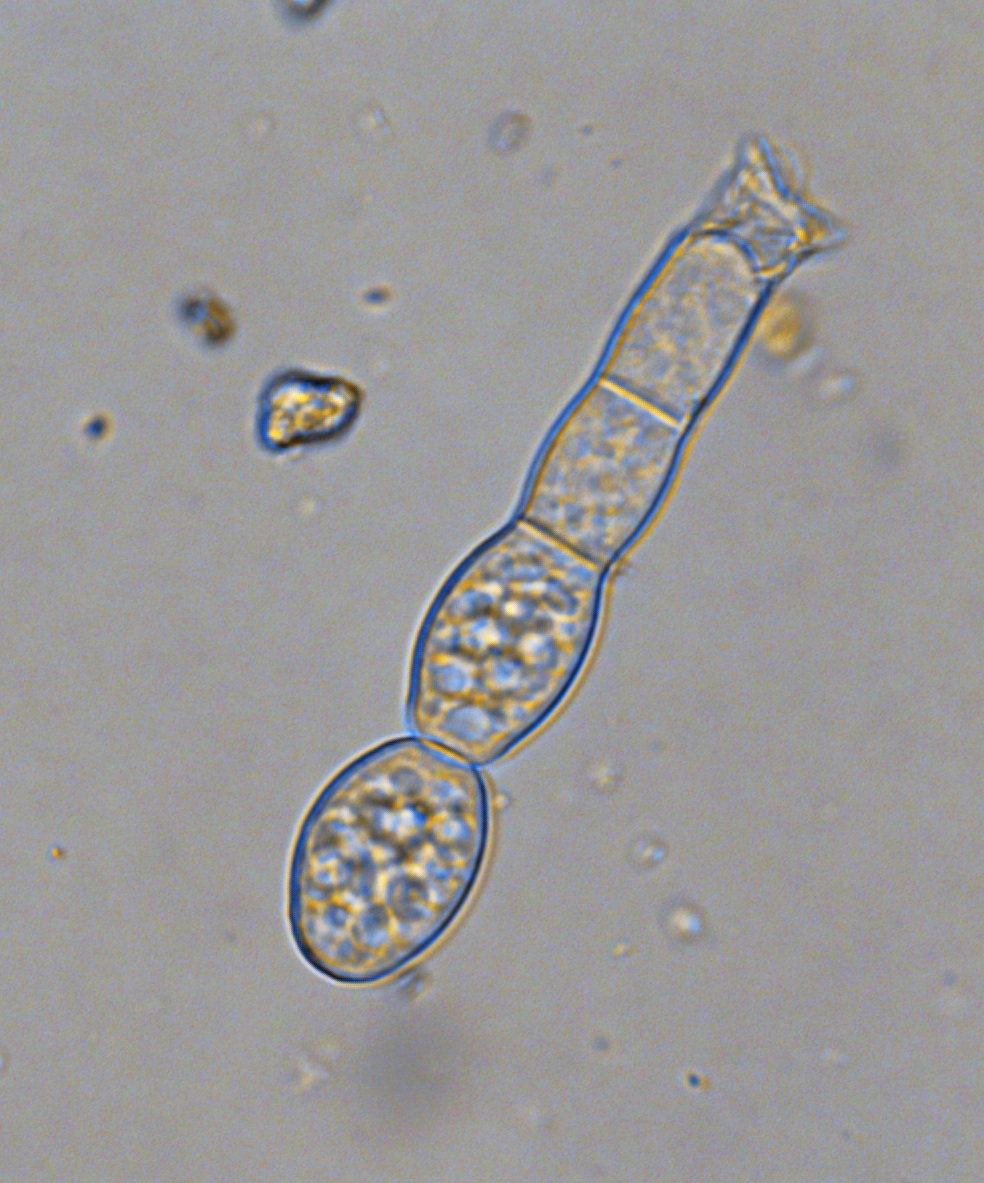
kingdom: Fungi
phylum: Ascomycota
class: Leotiomycetes
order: Helotiales
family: Erysiphaceae
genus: Golovinomyces
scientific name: Golovinomyces cichoracearum
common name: kurvblomst-meldug
